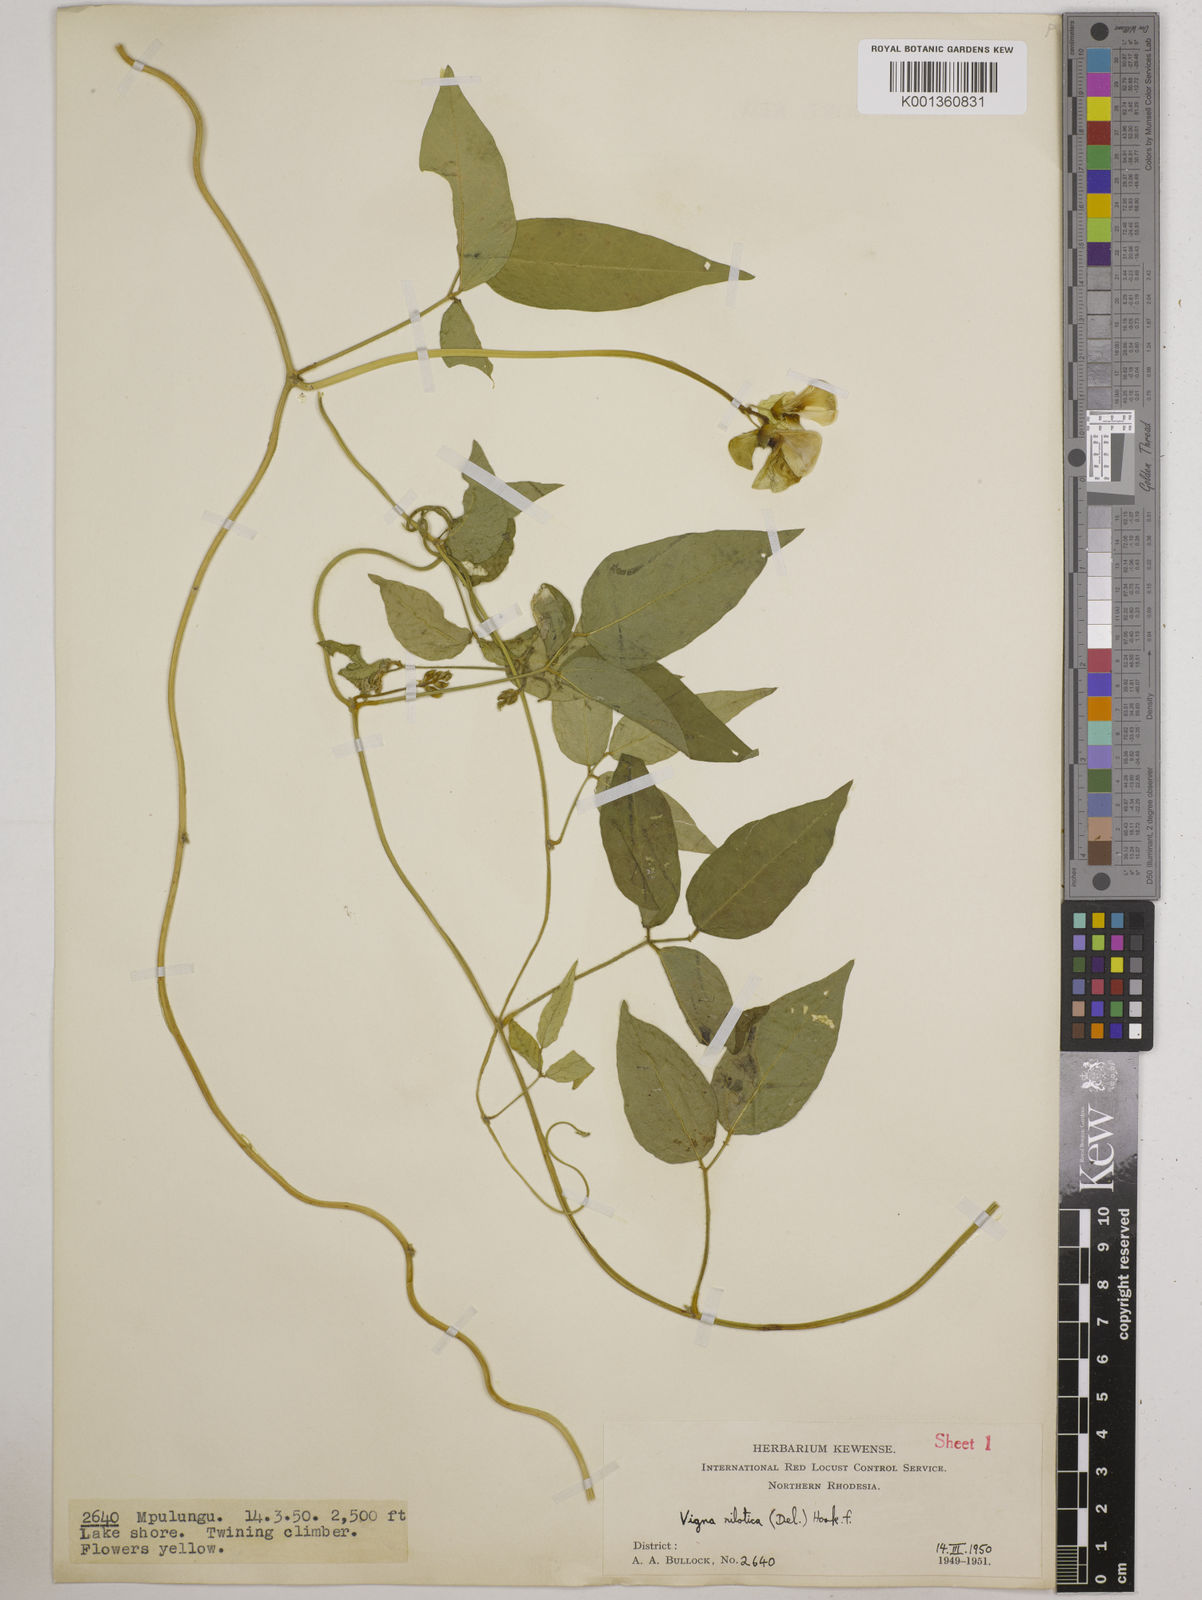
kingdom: Plantae
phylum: Tracheophyta
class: Magnoliopsida
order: Fabales
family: Fabaceae
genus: Vigna
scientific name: Vigna luteola
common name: Hairypod cowpea
